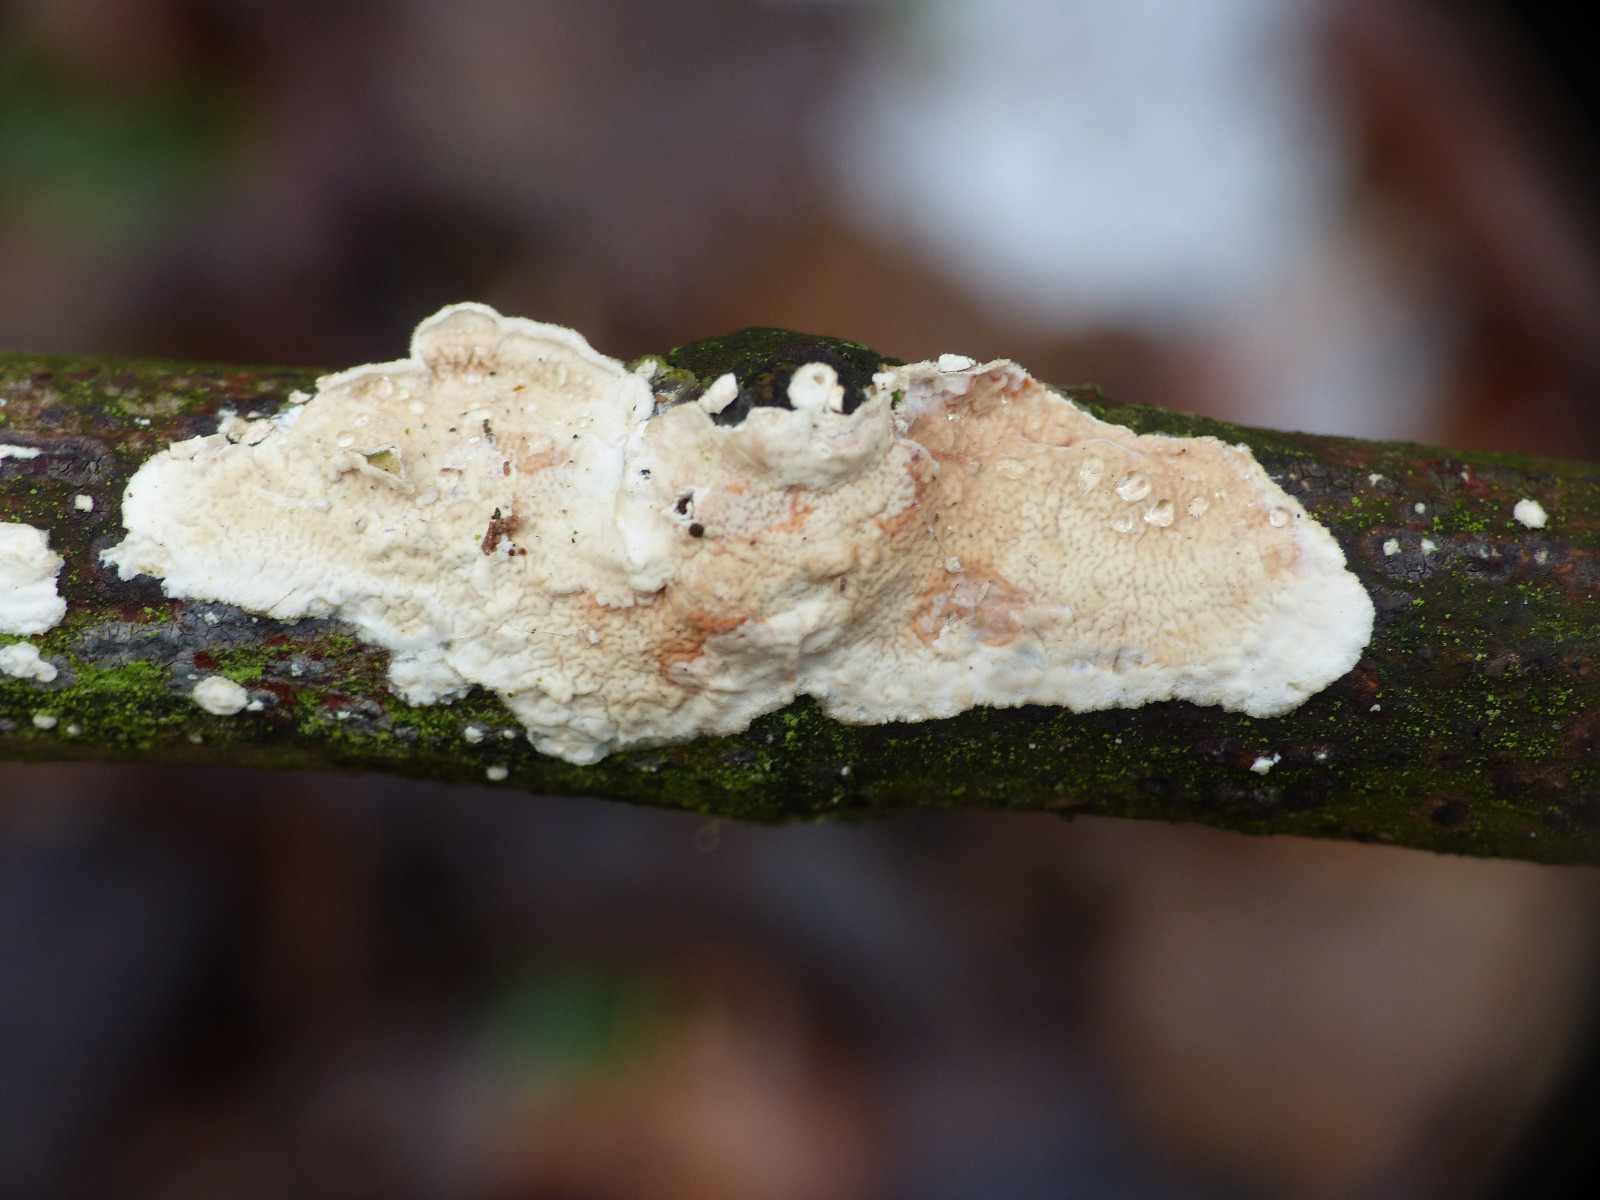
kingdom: Fungi
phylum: Basidiomycota
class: Agaricomycetes
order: Polyporales
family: Irpicaceae
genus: Byssomerulius
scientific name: Byssomerulius corium
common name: læder-åresvamp
